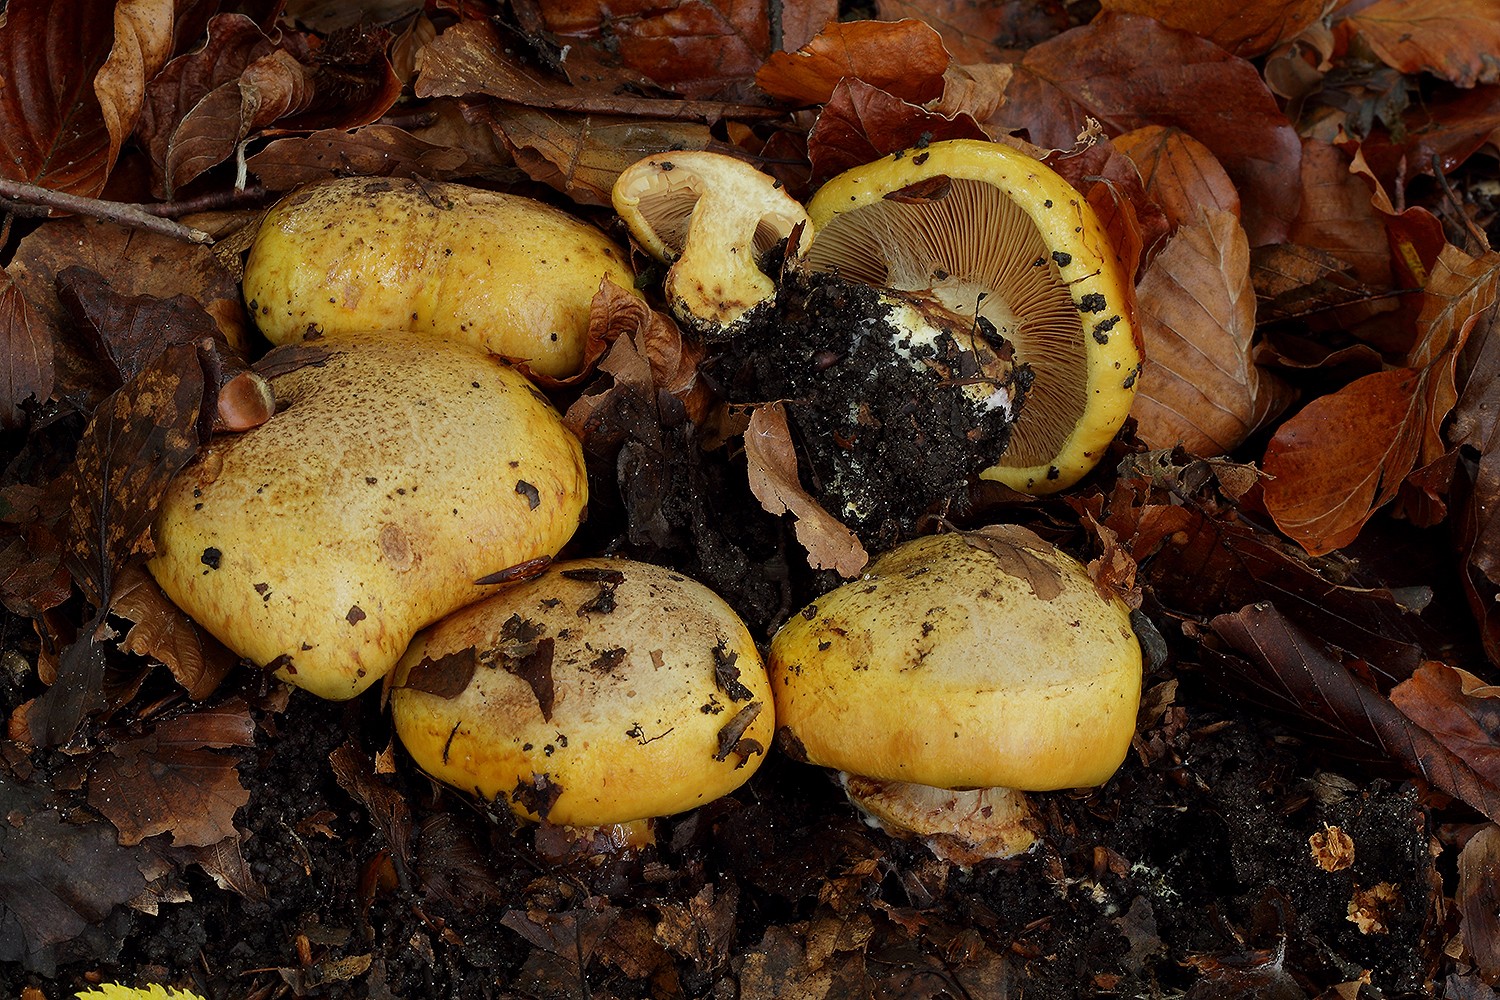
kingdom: Fungi
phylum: Basidiomycota
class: Agaricomycetes
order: Agaricales
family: Cortinariaceae
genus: Calonarius
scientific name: Calonarius alcalinophilus
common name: gyldenbrun slørhat
